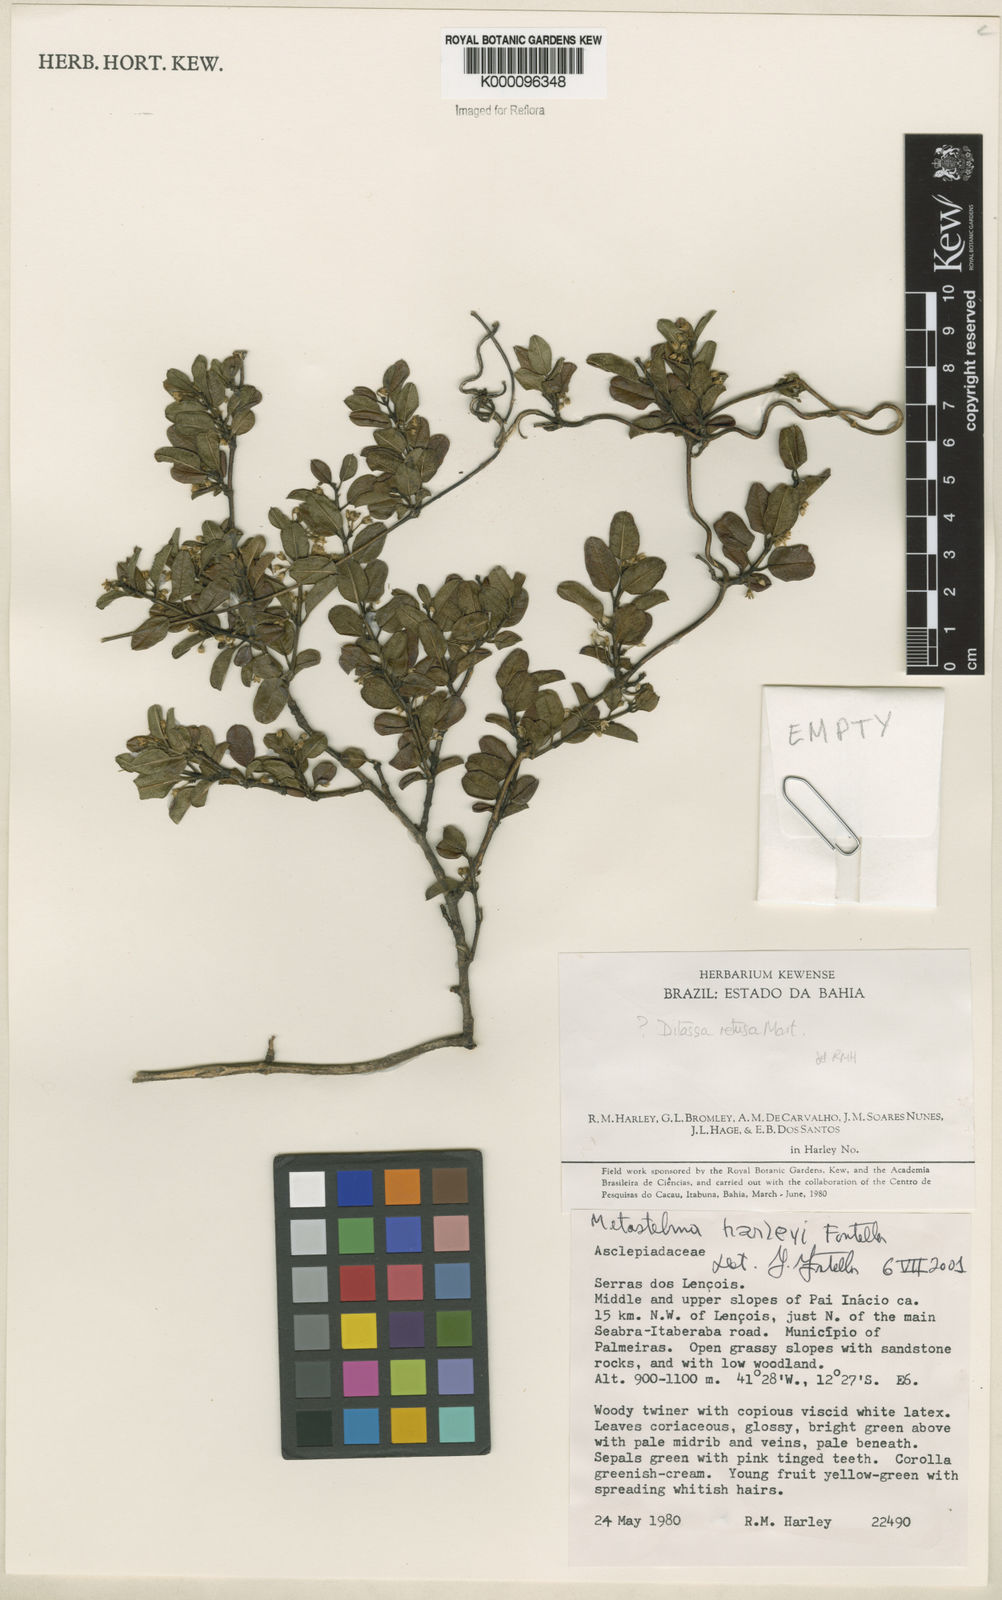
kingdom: Plantae
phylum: Tracheophyta
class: Magnoliopsida
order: Gentianales
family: Apocynaceae
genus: Metastelma
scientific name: Metastelma harleyi
